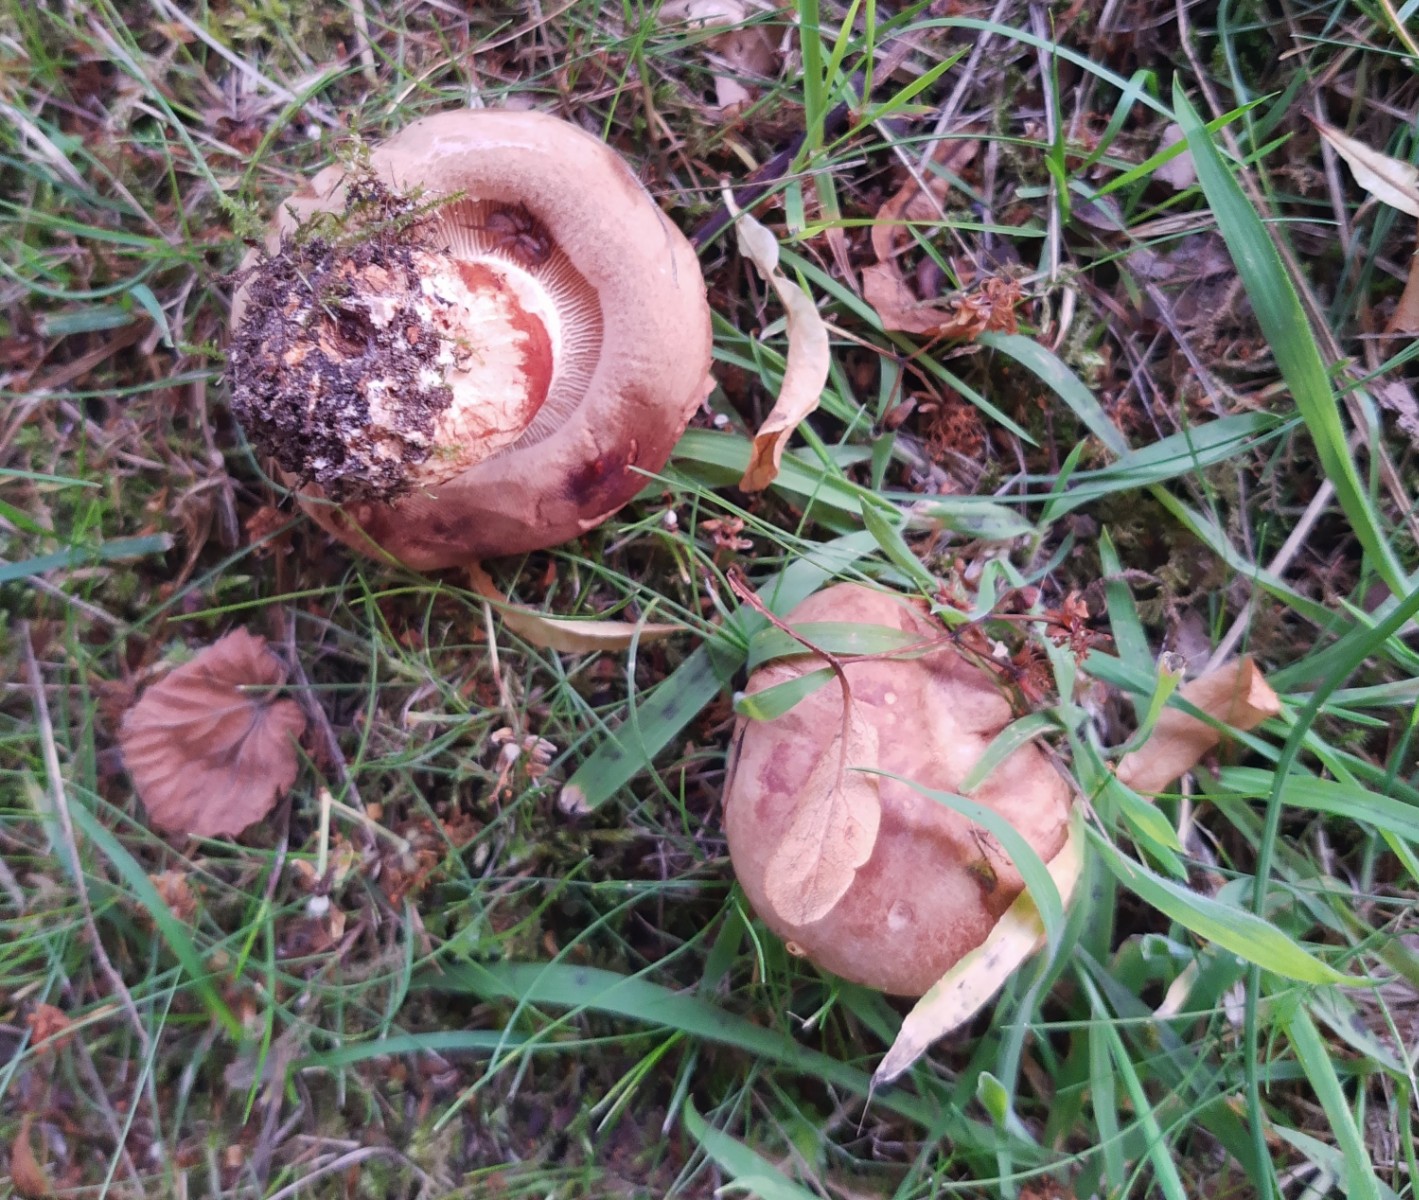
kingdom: Fungi
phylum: Basidiomycota
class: Agaricomycetes
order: Boletales
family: Paxillaceae
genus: Paxillus
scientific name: Paxillus involutus
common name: almindelig netbladhat
